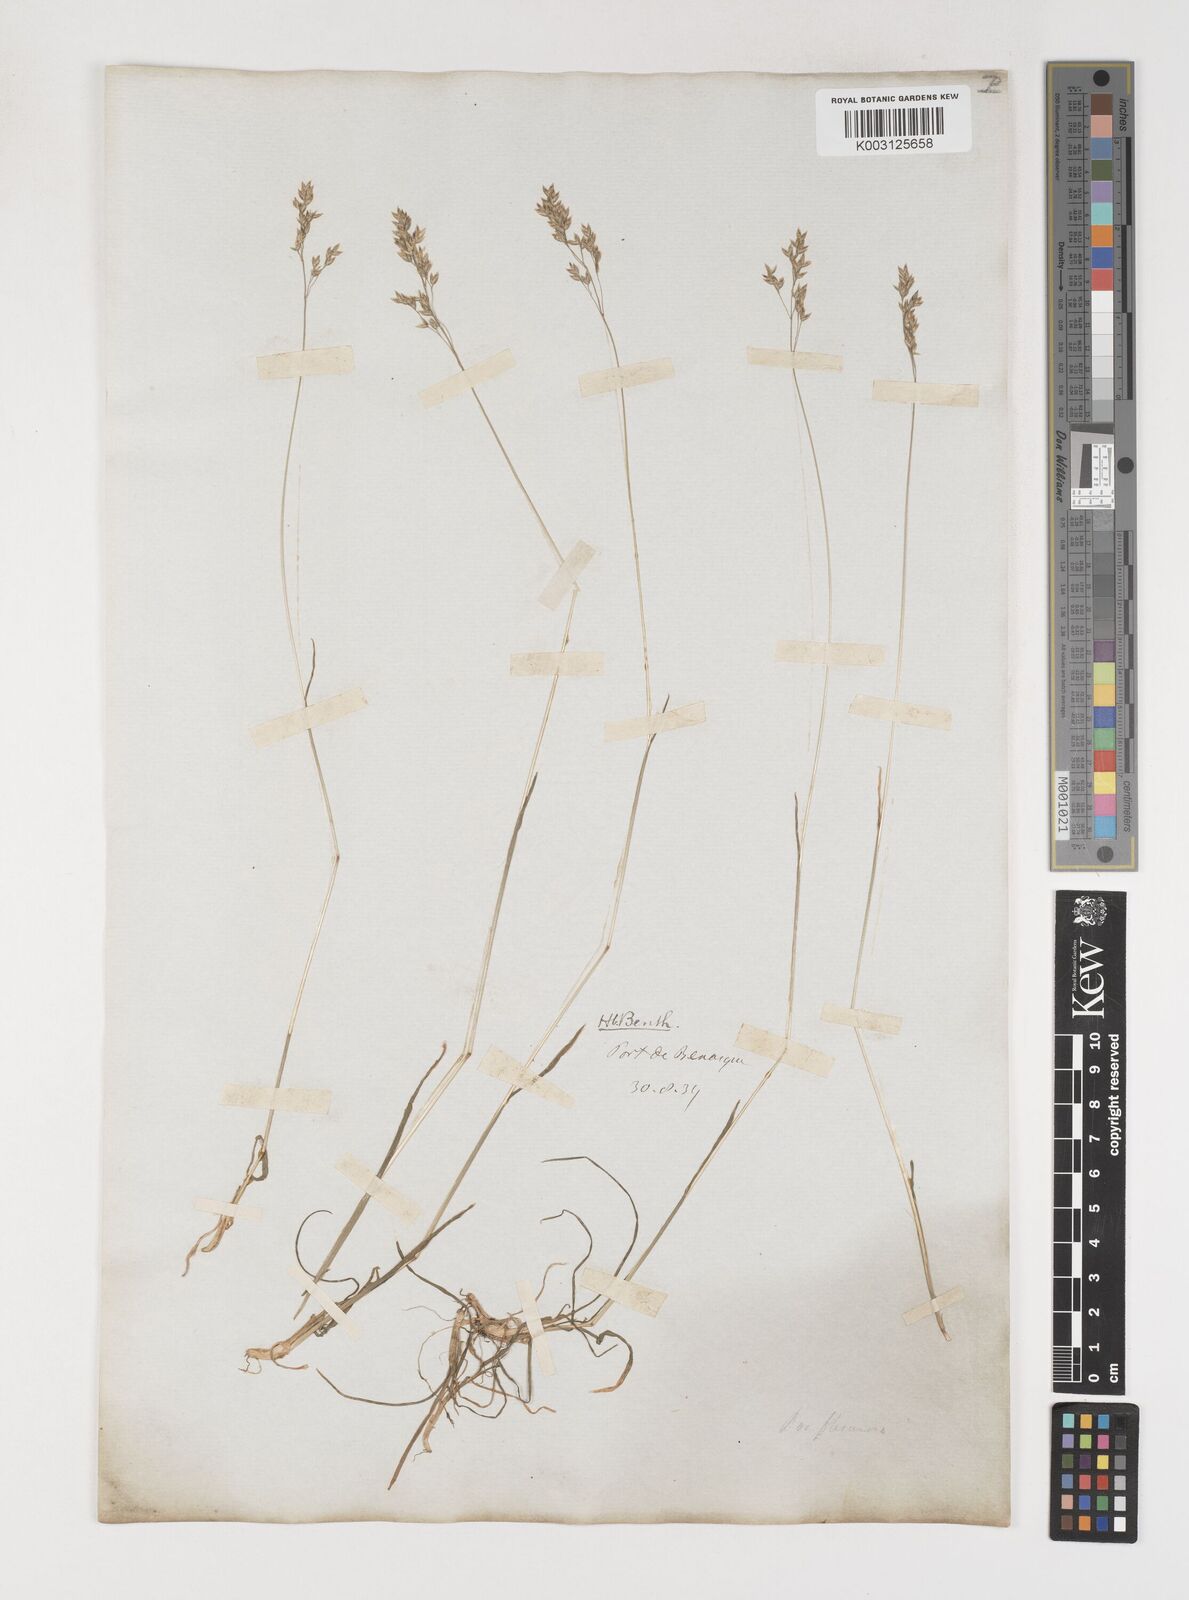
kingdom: Plantae
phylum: Tracheophyta
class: Liliopsida
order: Poales
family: Poaceae
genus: Poa
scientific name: Poa
